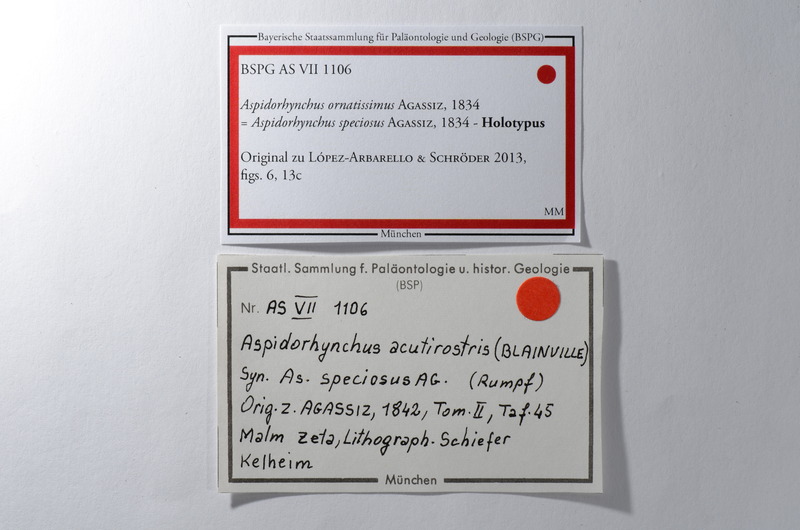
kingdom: Animalia
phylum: Chordata
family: Aspidorhynchidae
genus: Aspidorhynchus
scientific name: Aspidorhynchus ornatissimus
